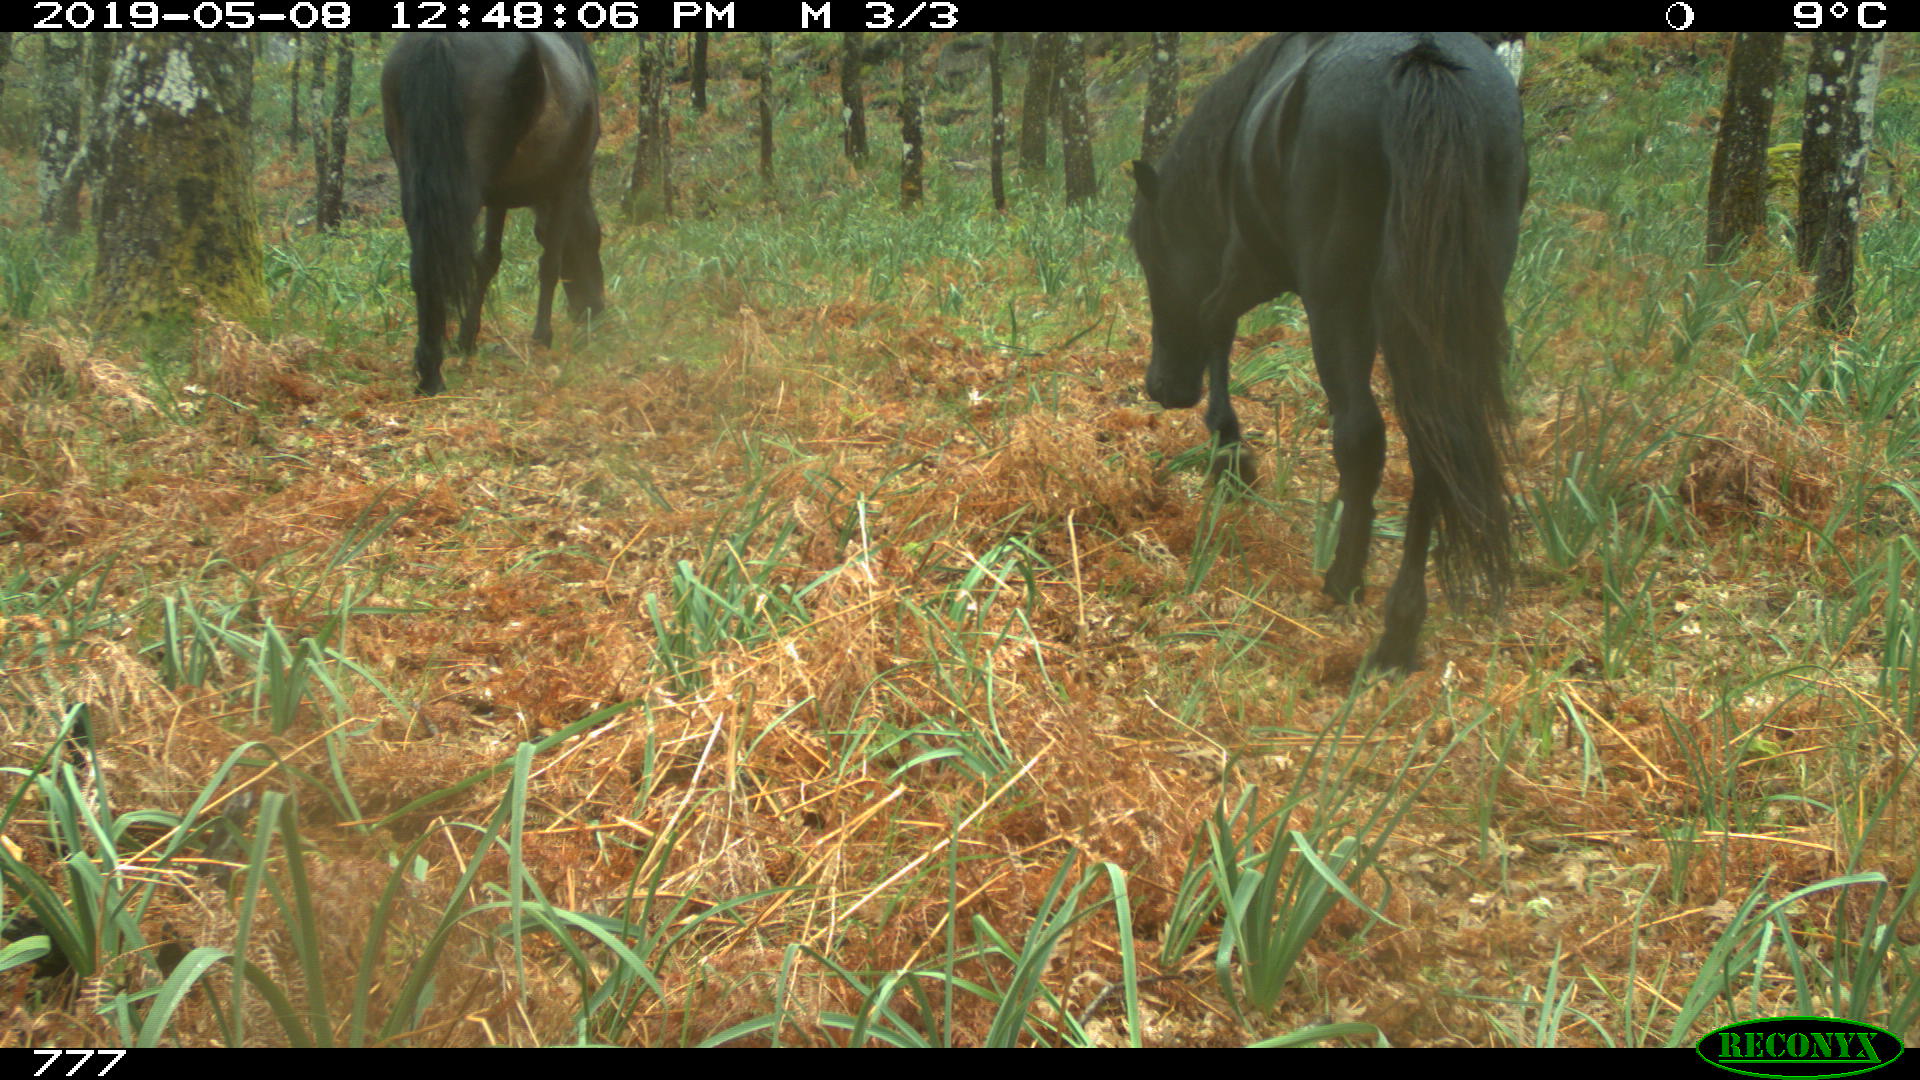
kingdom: Animalia
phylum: Chordata
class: Mammalia
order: Perissodactyla
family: Equidae
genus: Equus
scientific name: Equus caballus
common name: Horse
